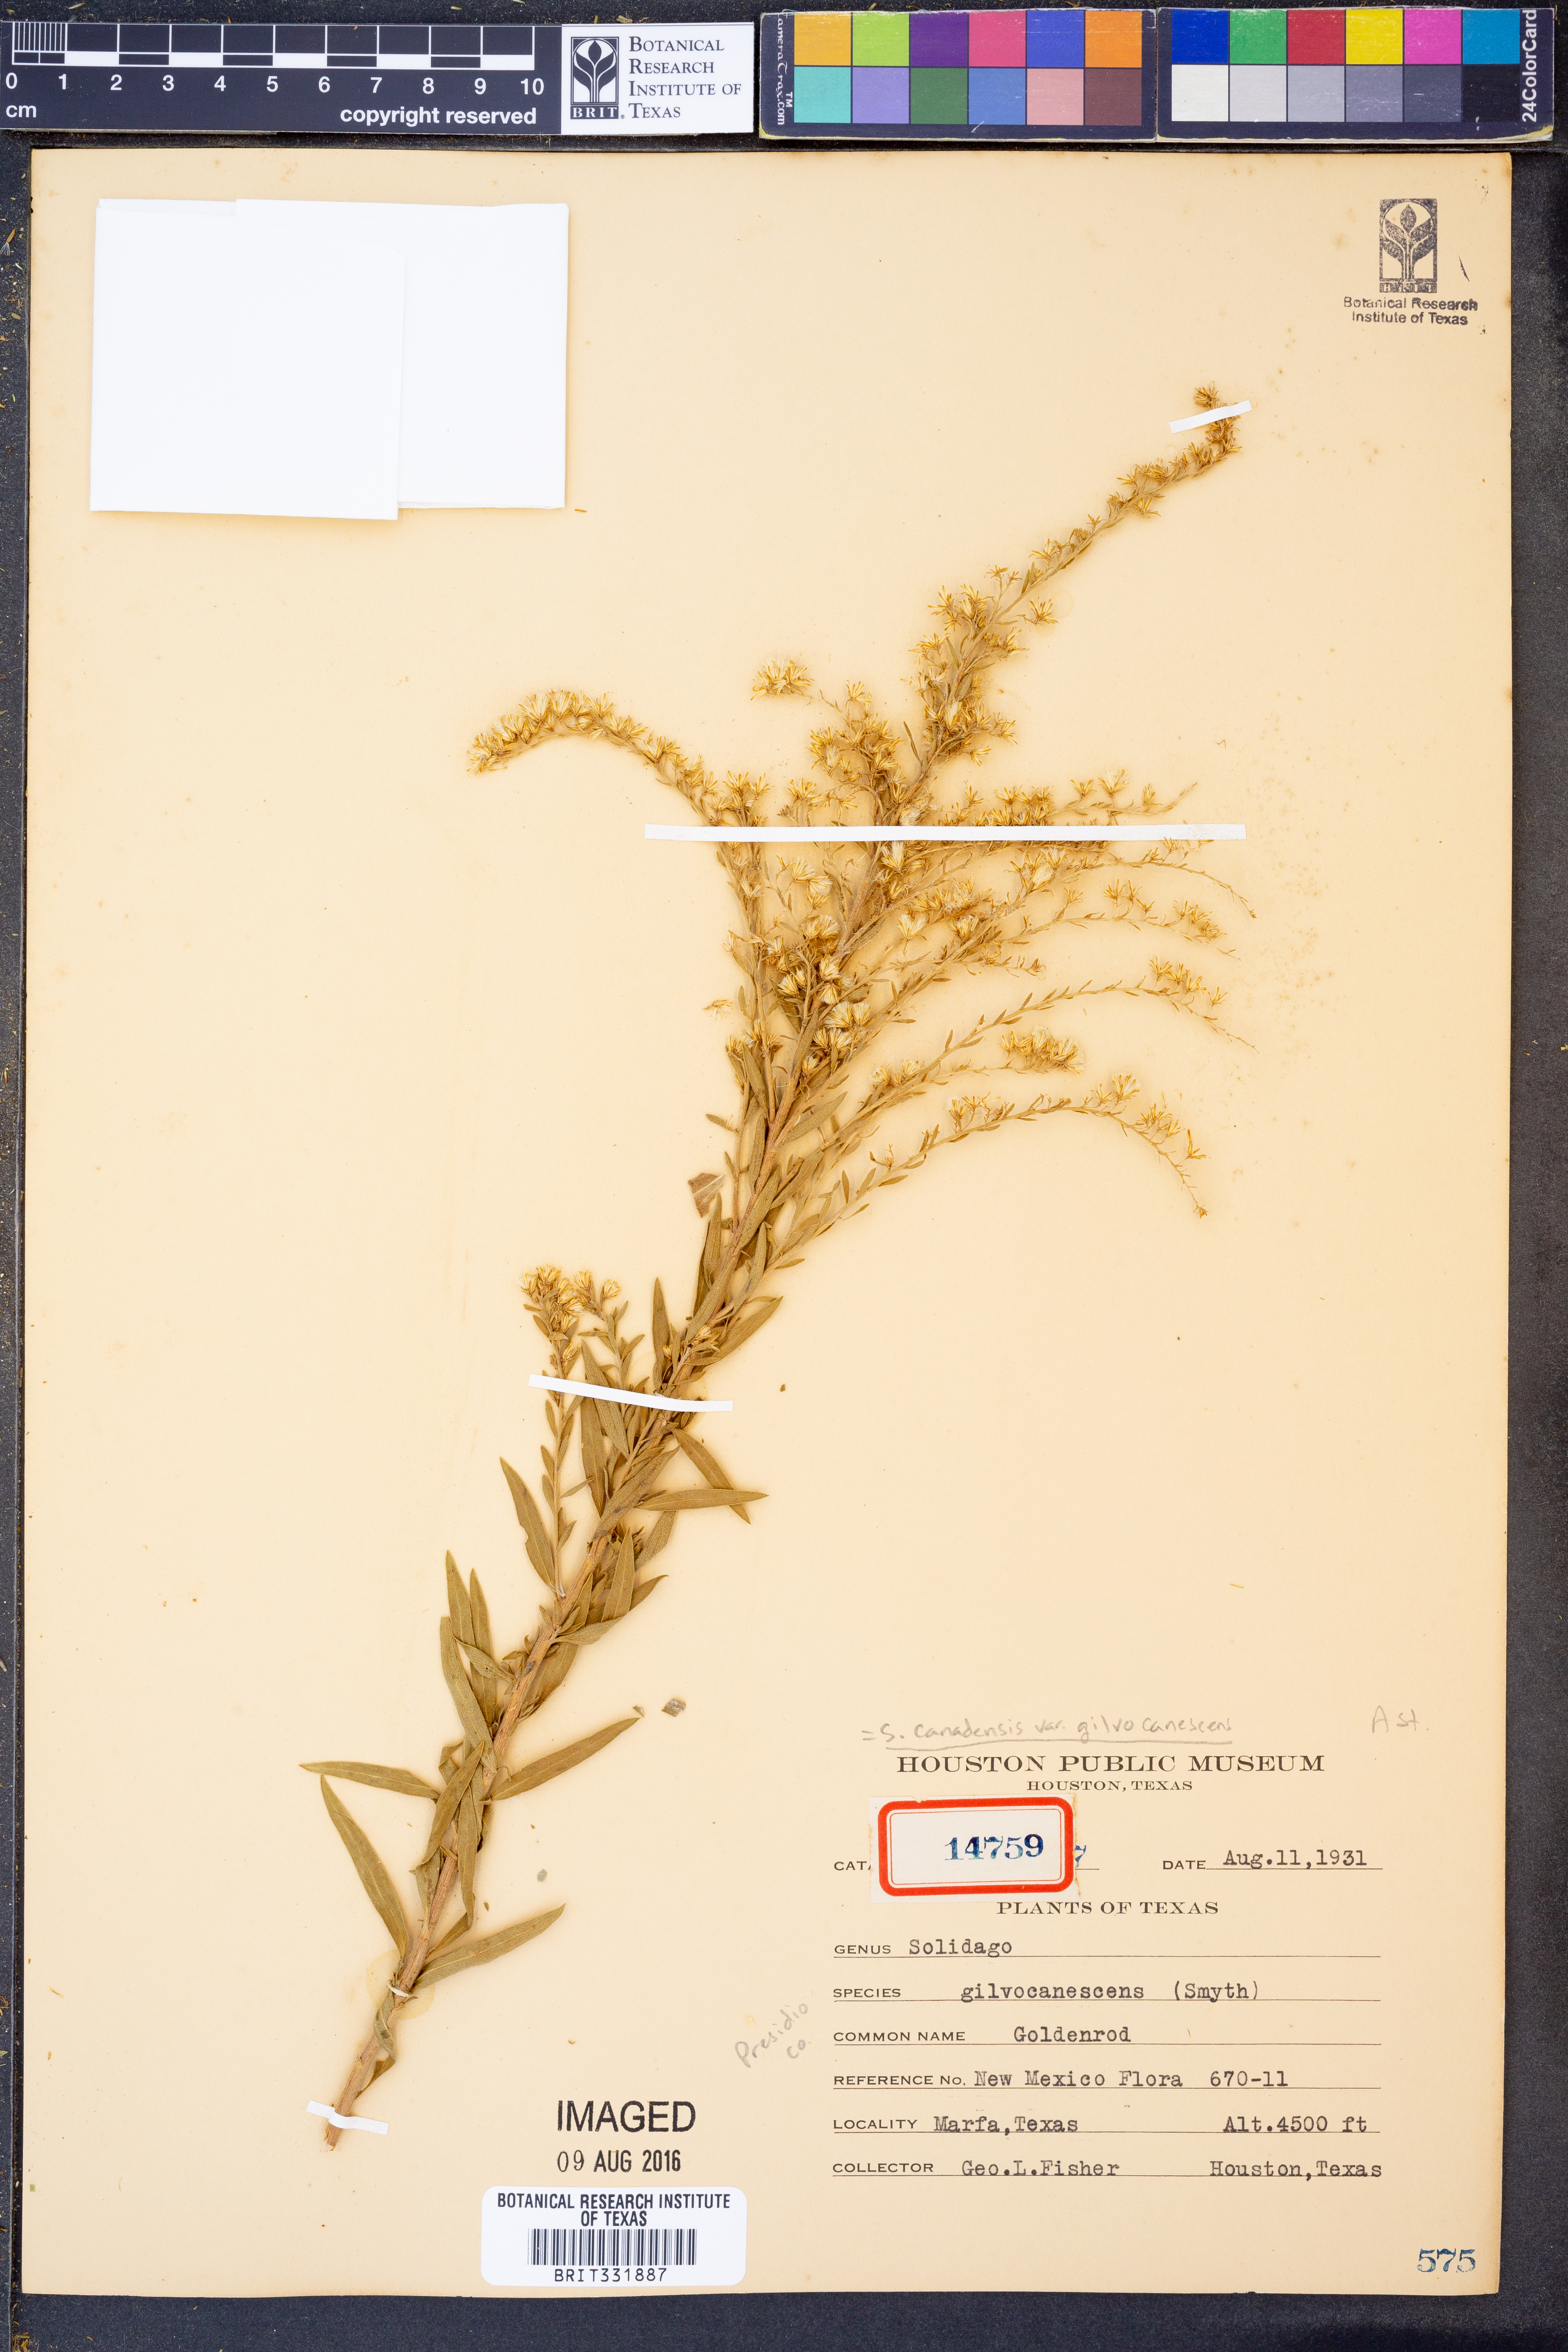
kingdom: Plantae
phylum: Tracheophyta
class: Magnoliopsida
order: Asterales
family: Asteraceae
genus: Solidago
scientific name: Solidago altissima
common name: Late goldenrod
